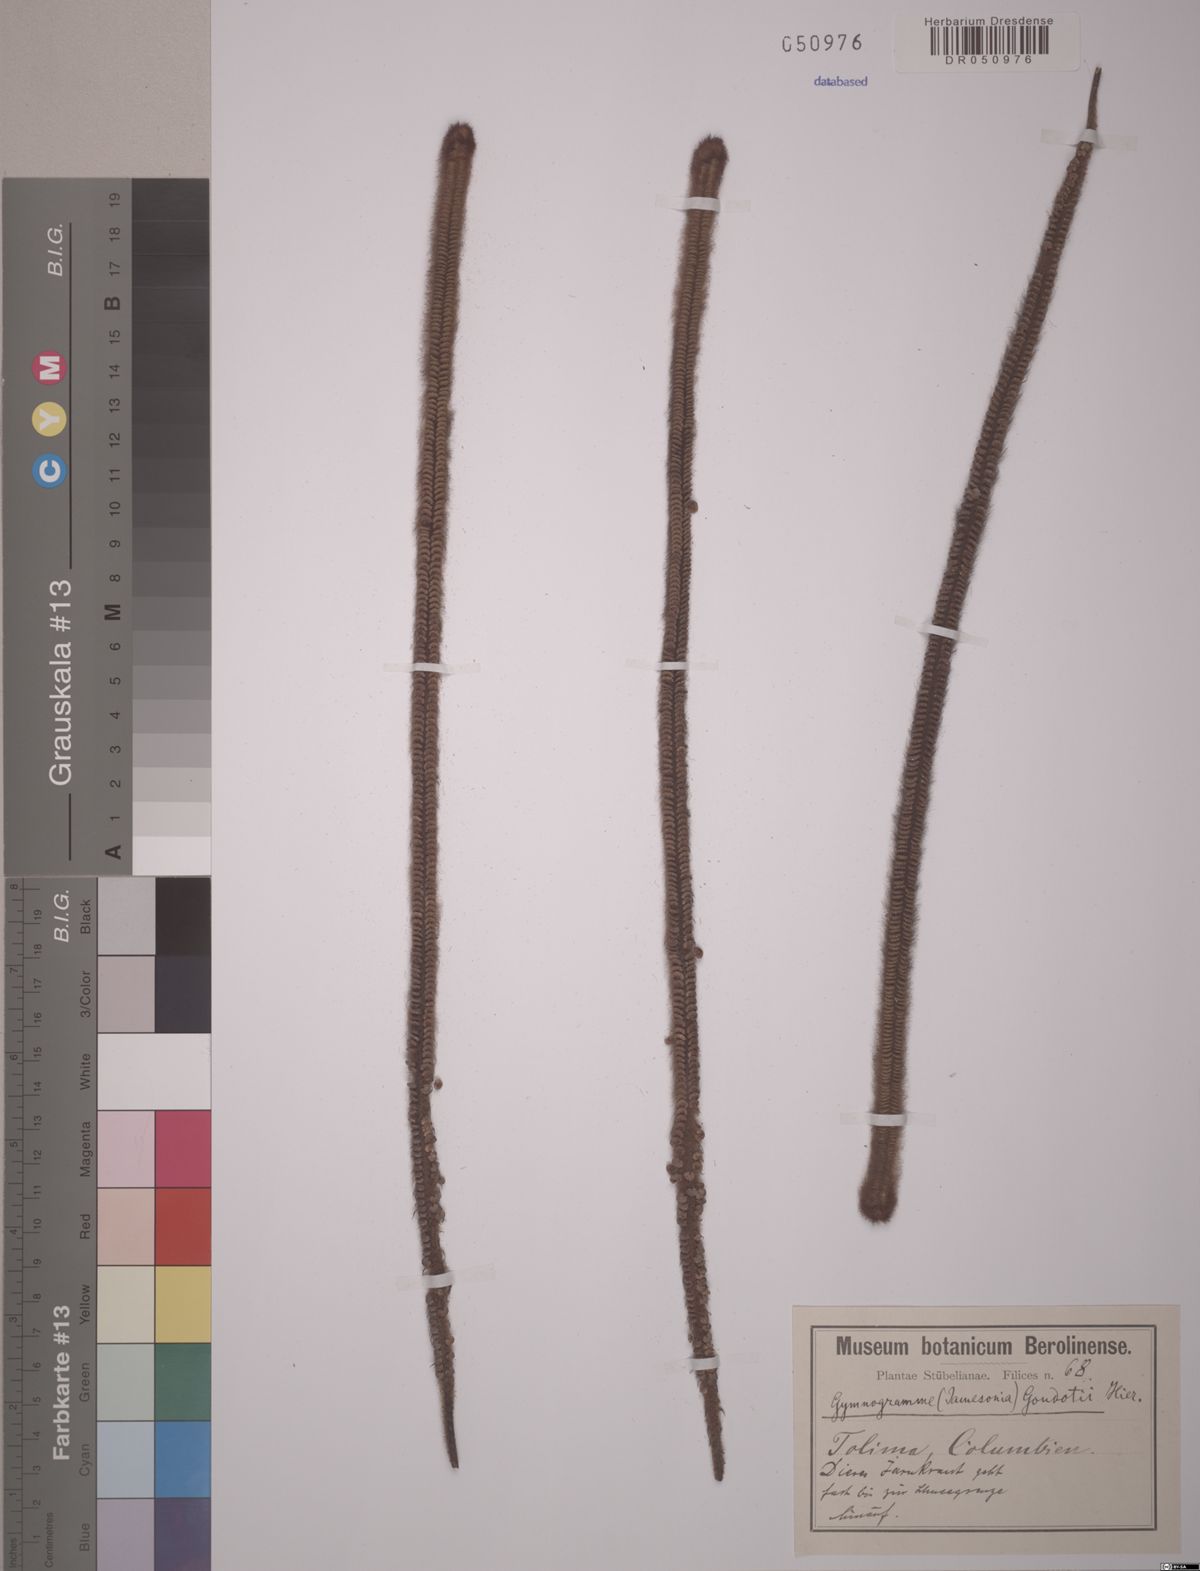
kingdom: Plantae
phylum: Tracheophyta
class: Polypodiopsida
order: Polypodiales
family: Pteridaceae
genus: Jamesonia
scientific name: Jamesonia goudotii
